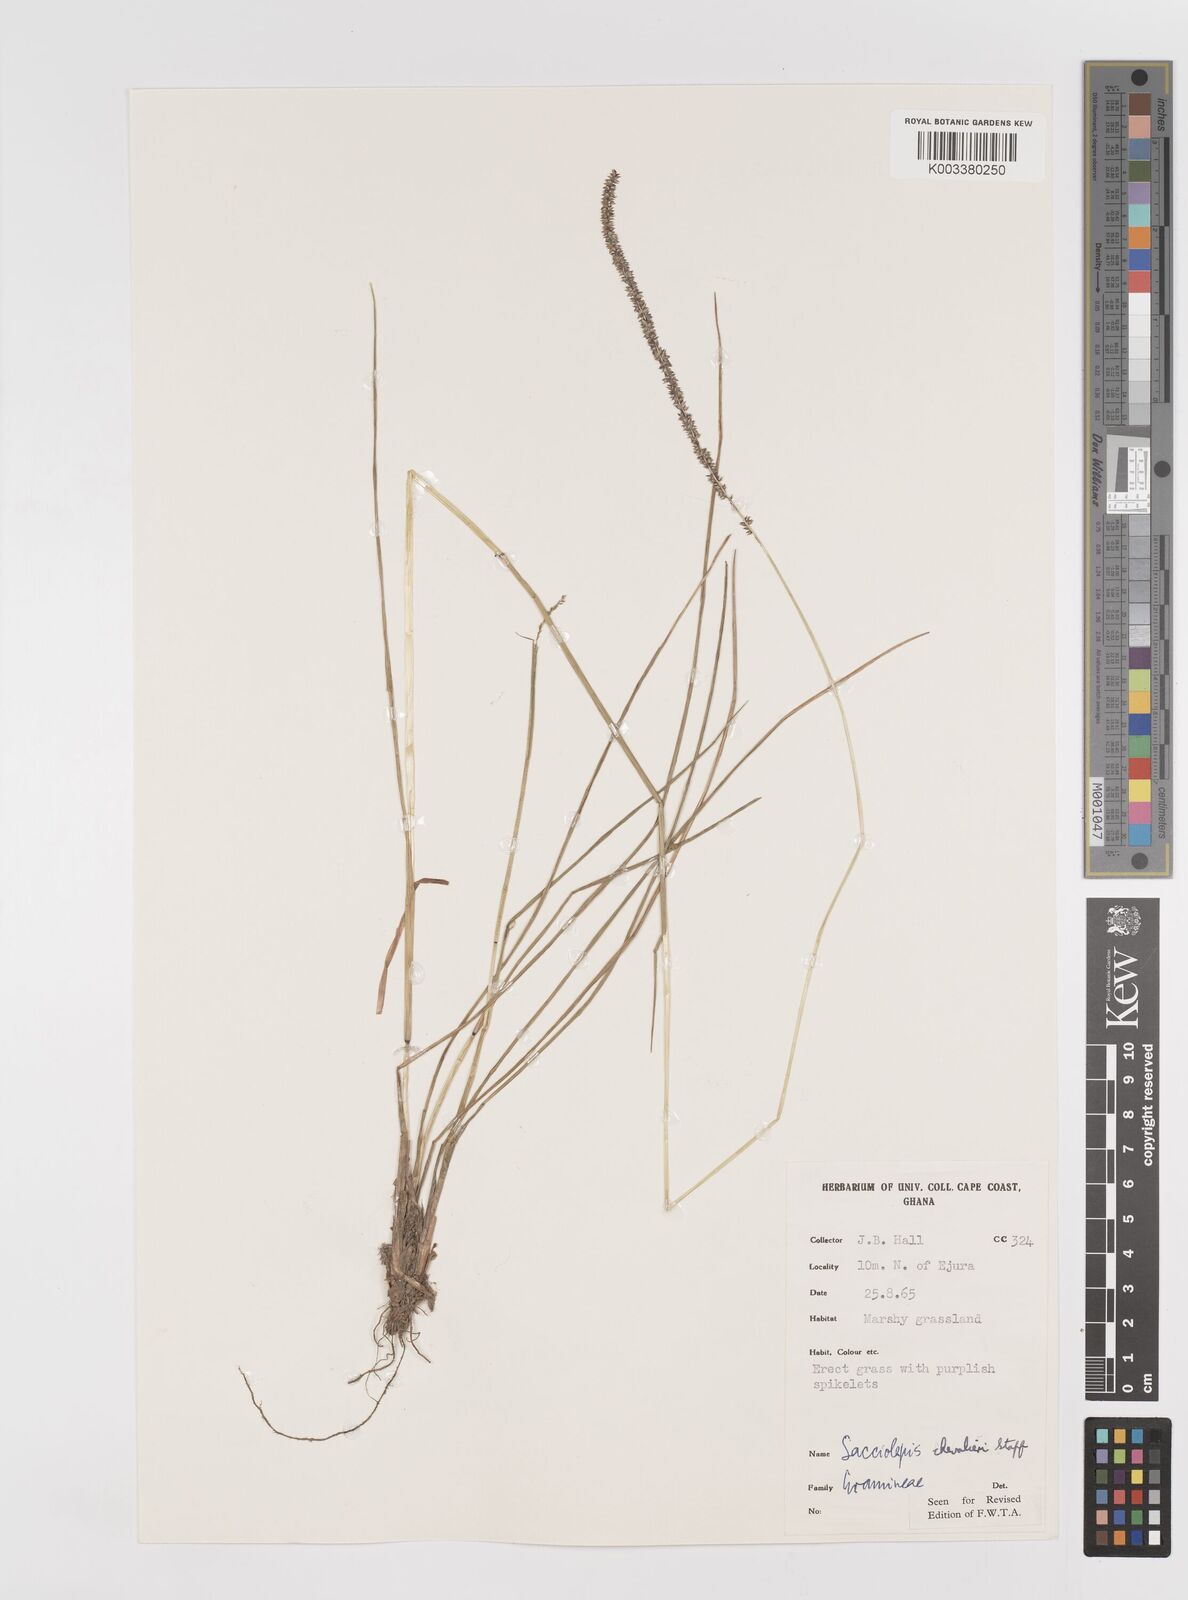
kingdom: Plantae
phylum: Tracheophyta
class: Liliopsida
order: Poales
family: Poaceae
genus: Sacciolepis
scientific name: Sacciolepis chevalieri
